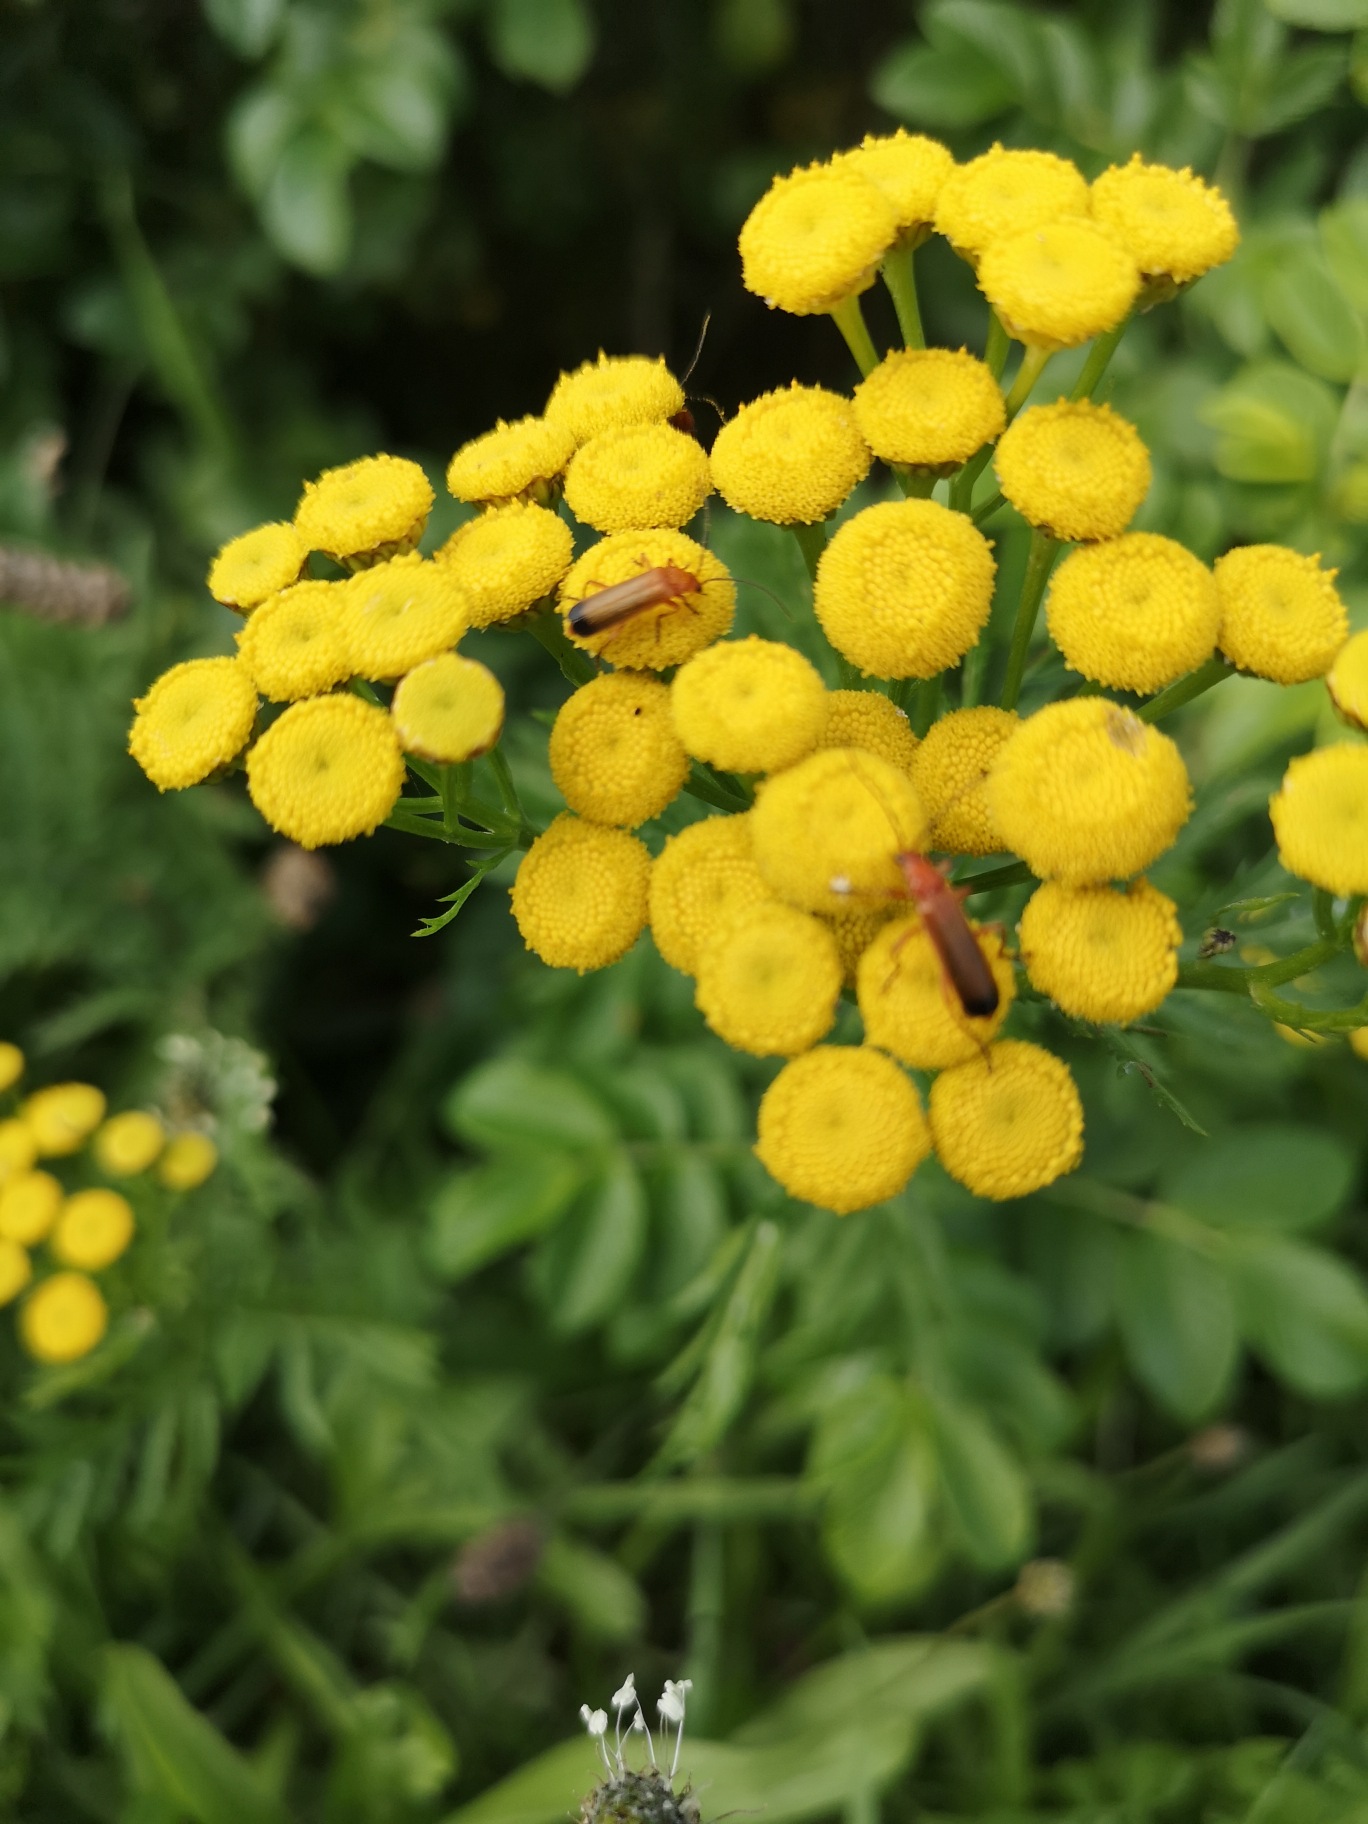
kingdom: Plantae
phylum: Tracheophyta
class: Magnoliopsida
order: Asterales
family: Asteraceae
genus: Tanacetum
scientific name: Tanacetum vulgare
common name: Rejnfan
